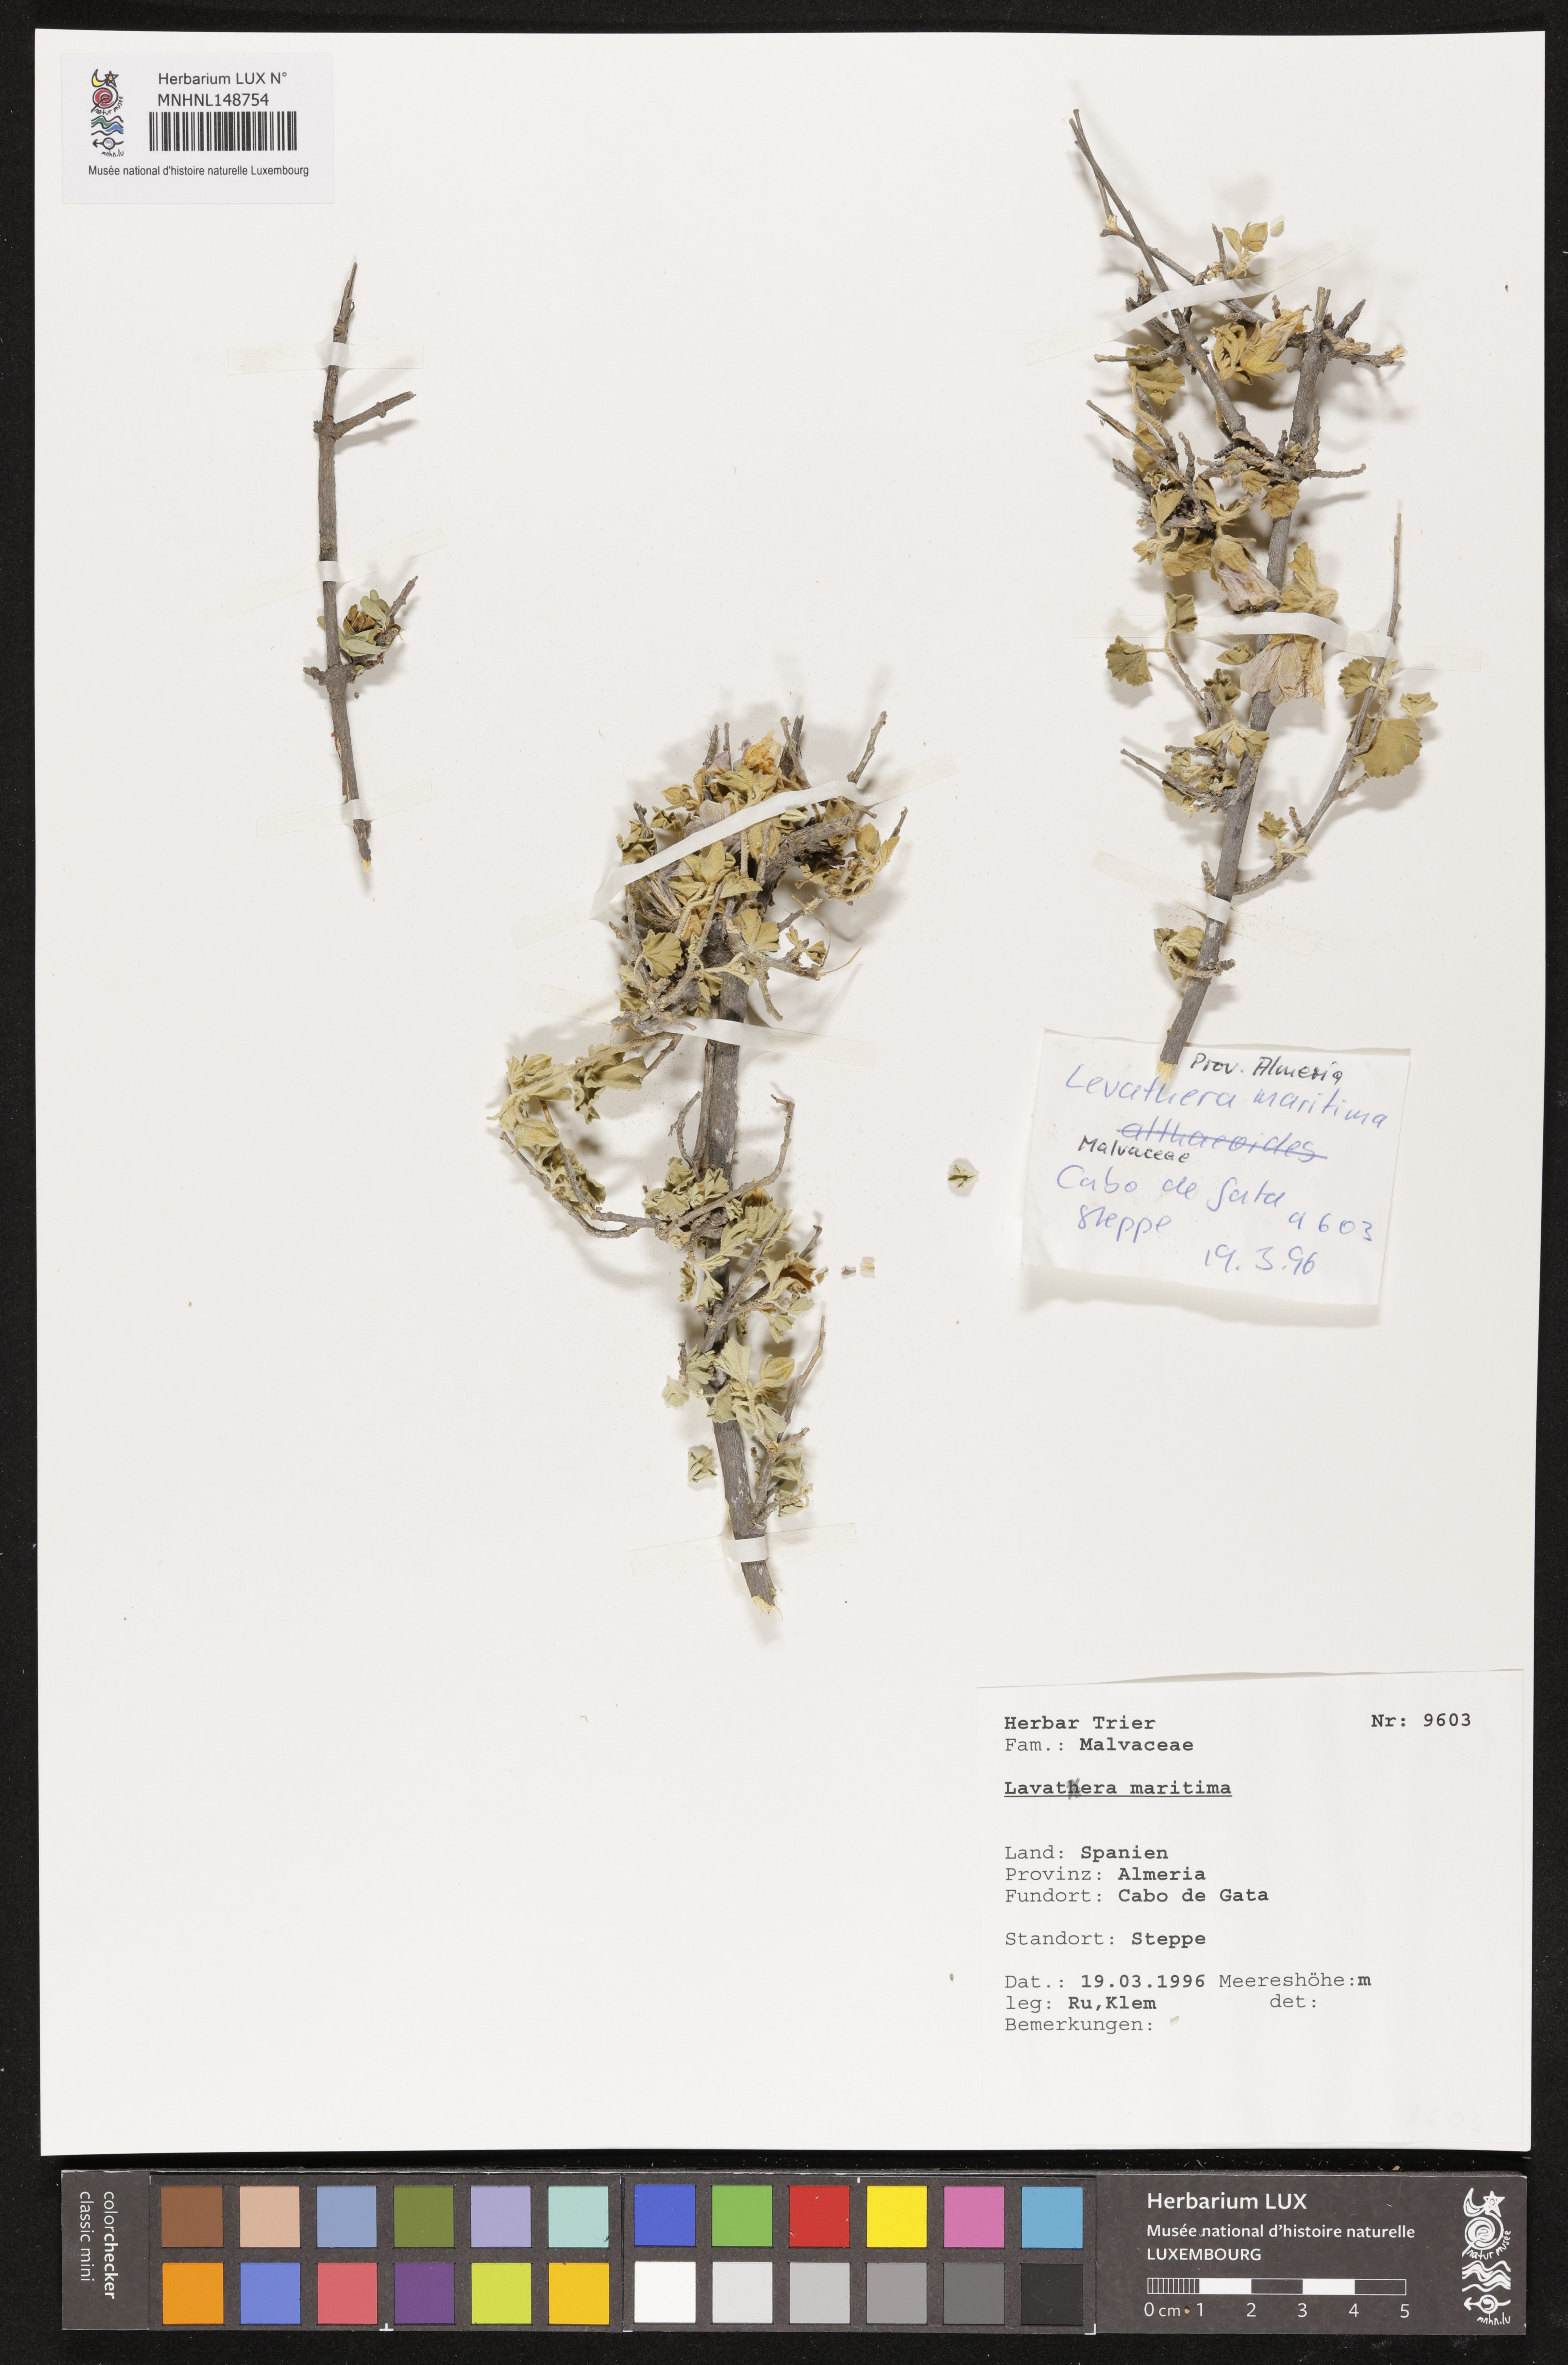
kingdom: Plantae
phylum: Tracheophyta
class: Magnoliopsida
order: Malvales
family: Malvaceae
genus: Malva
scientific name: Malva subovata
